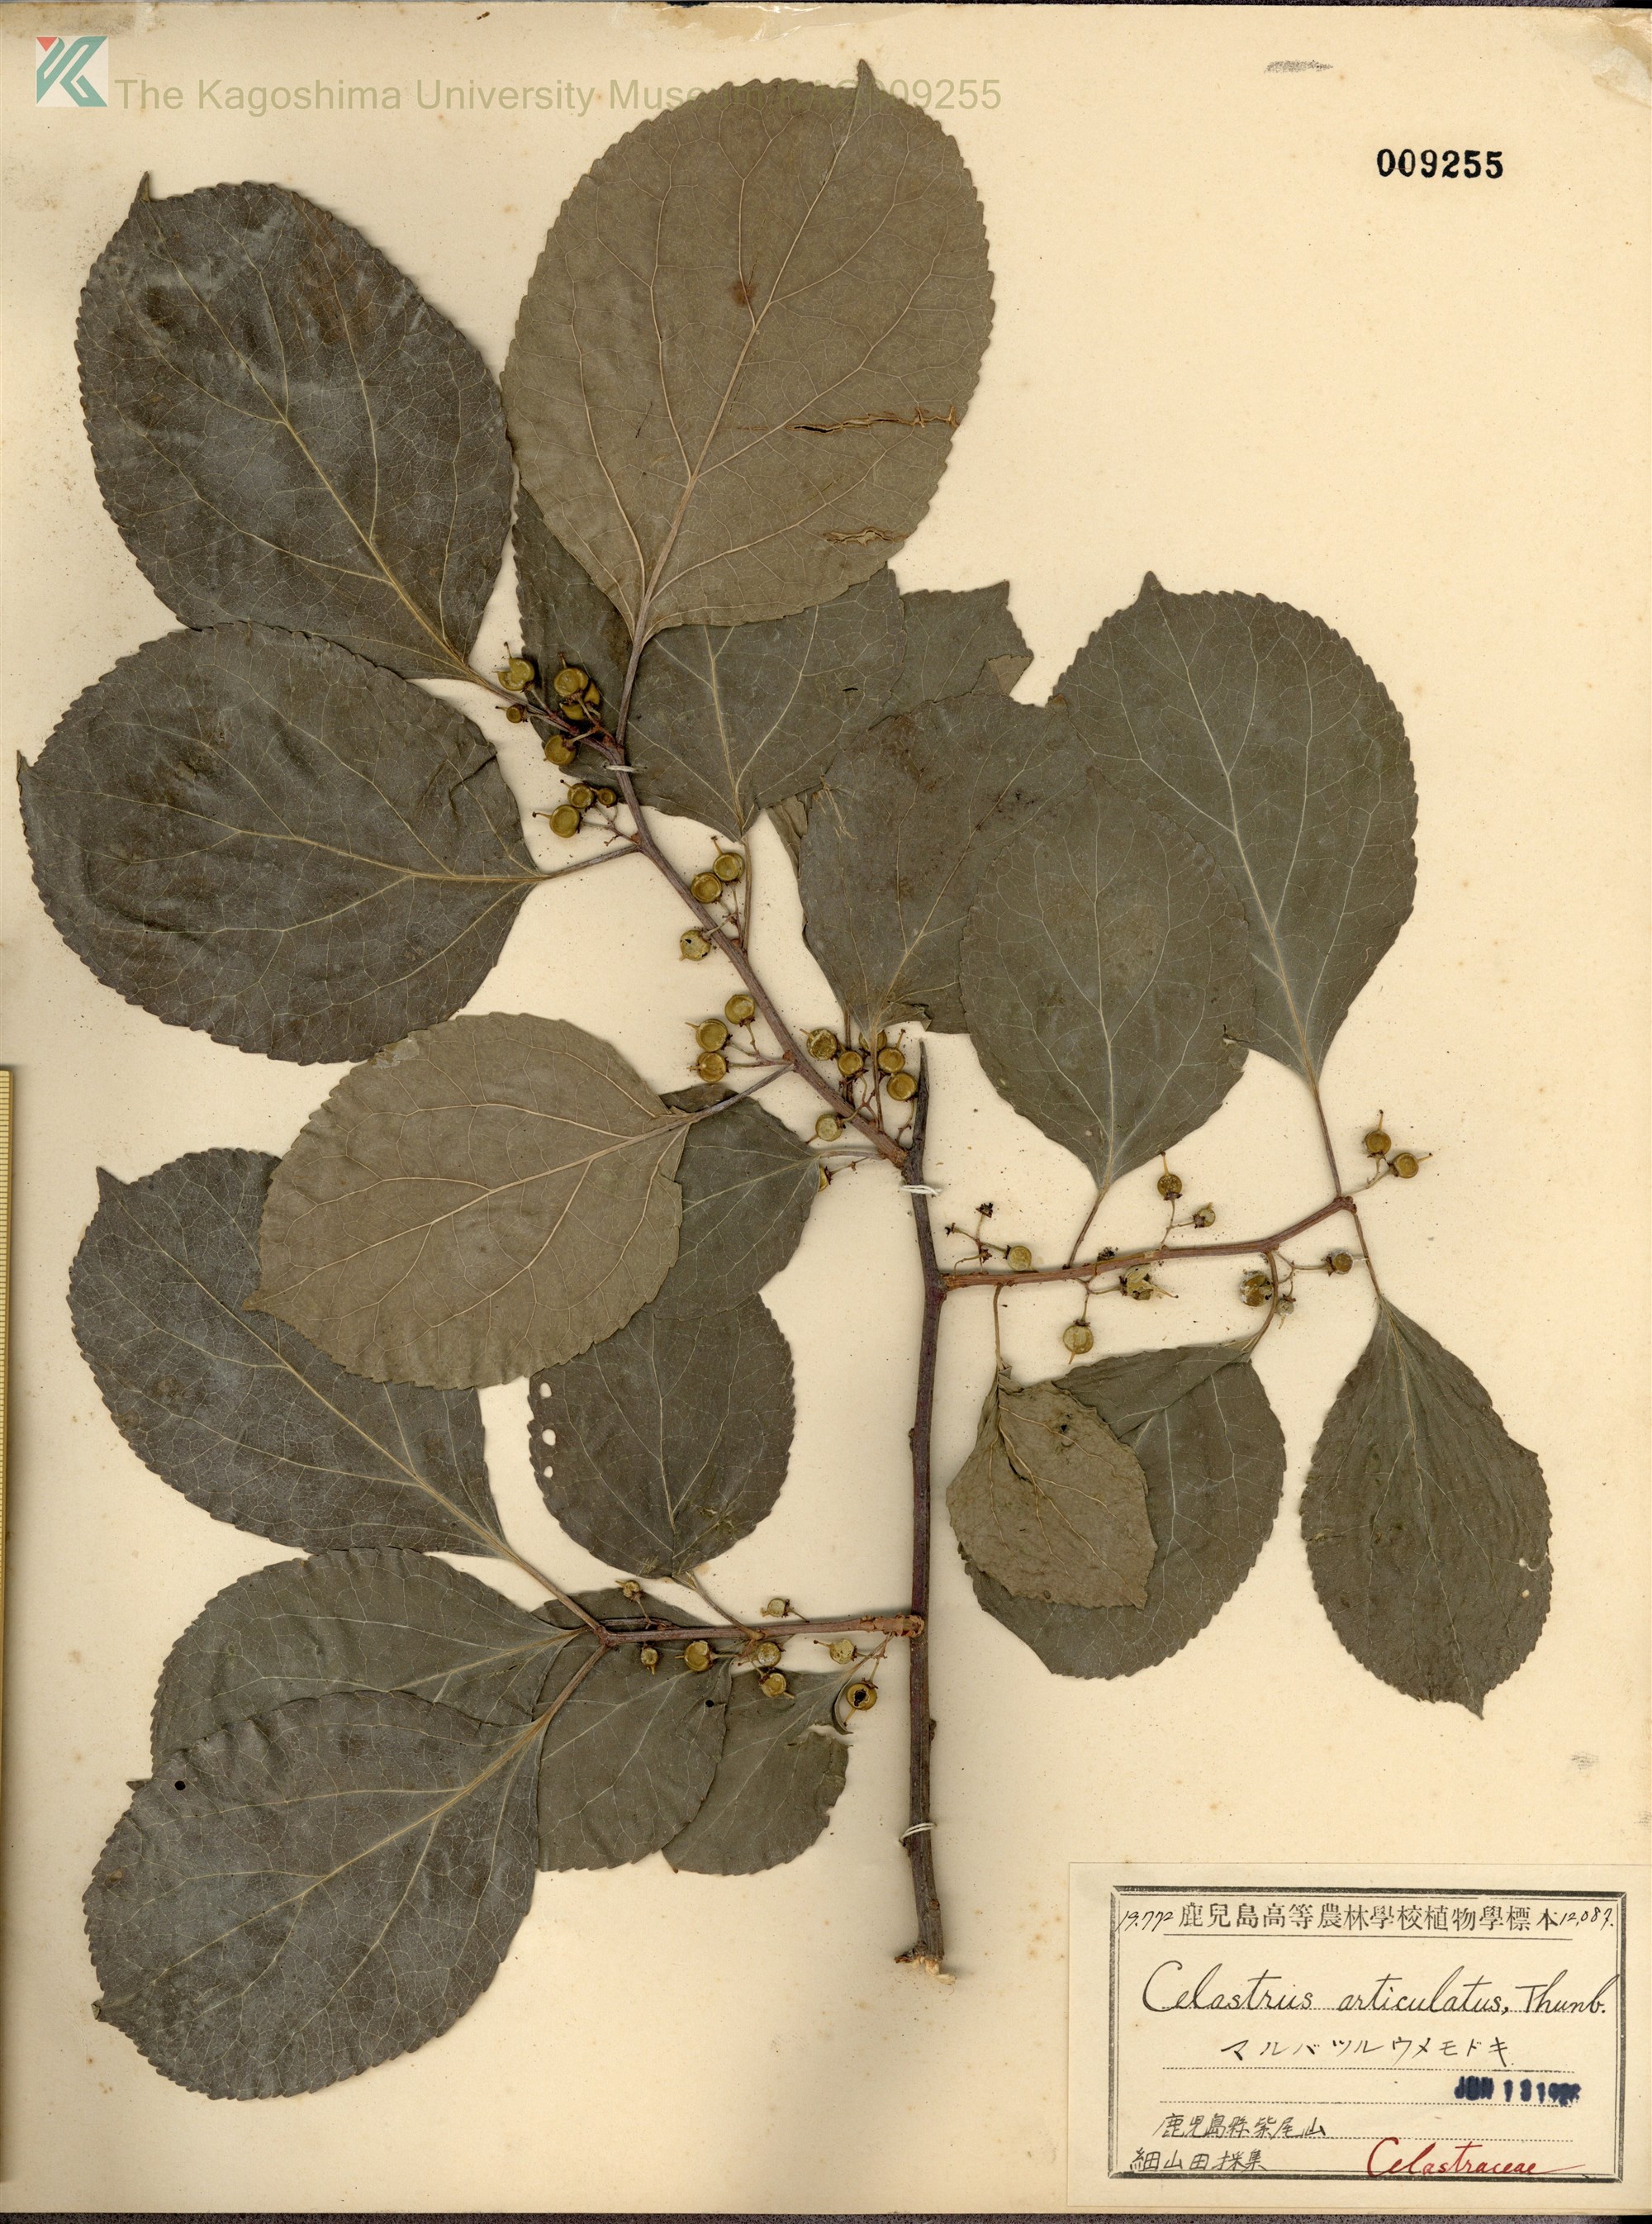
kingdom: Plantae
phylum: Tracheophyta
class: Magnoliopsida
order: Celastrales
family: Celastraceae
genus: Celastrus
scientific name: Celastrus orbiculatus
